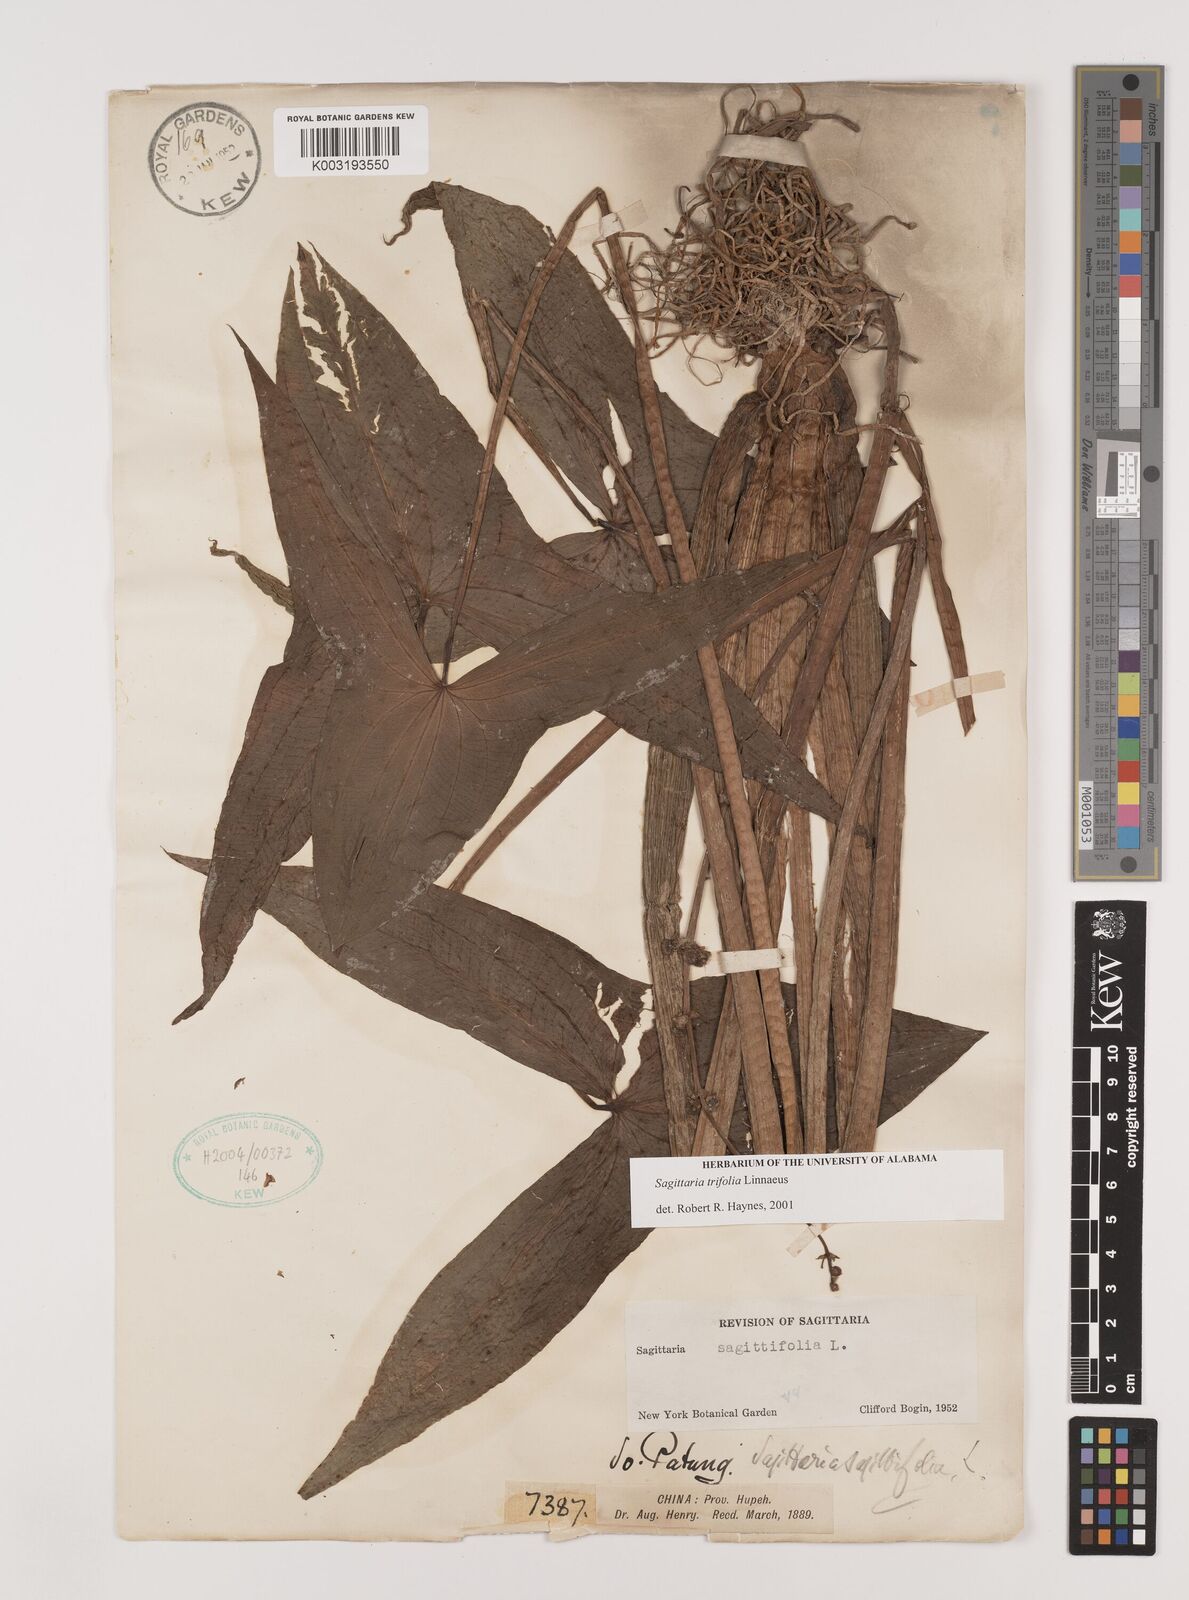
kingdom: Plantae
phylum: Tracheophyta
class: Liliopsida
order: Alismatales
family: Alismataceae
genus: Sagittaria
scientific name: Sagittaria trifolia
